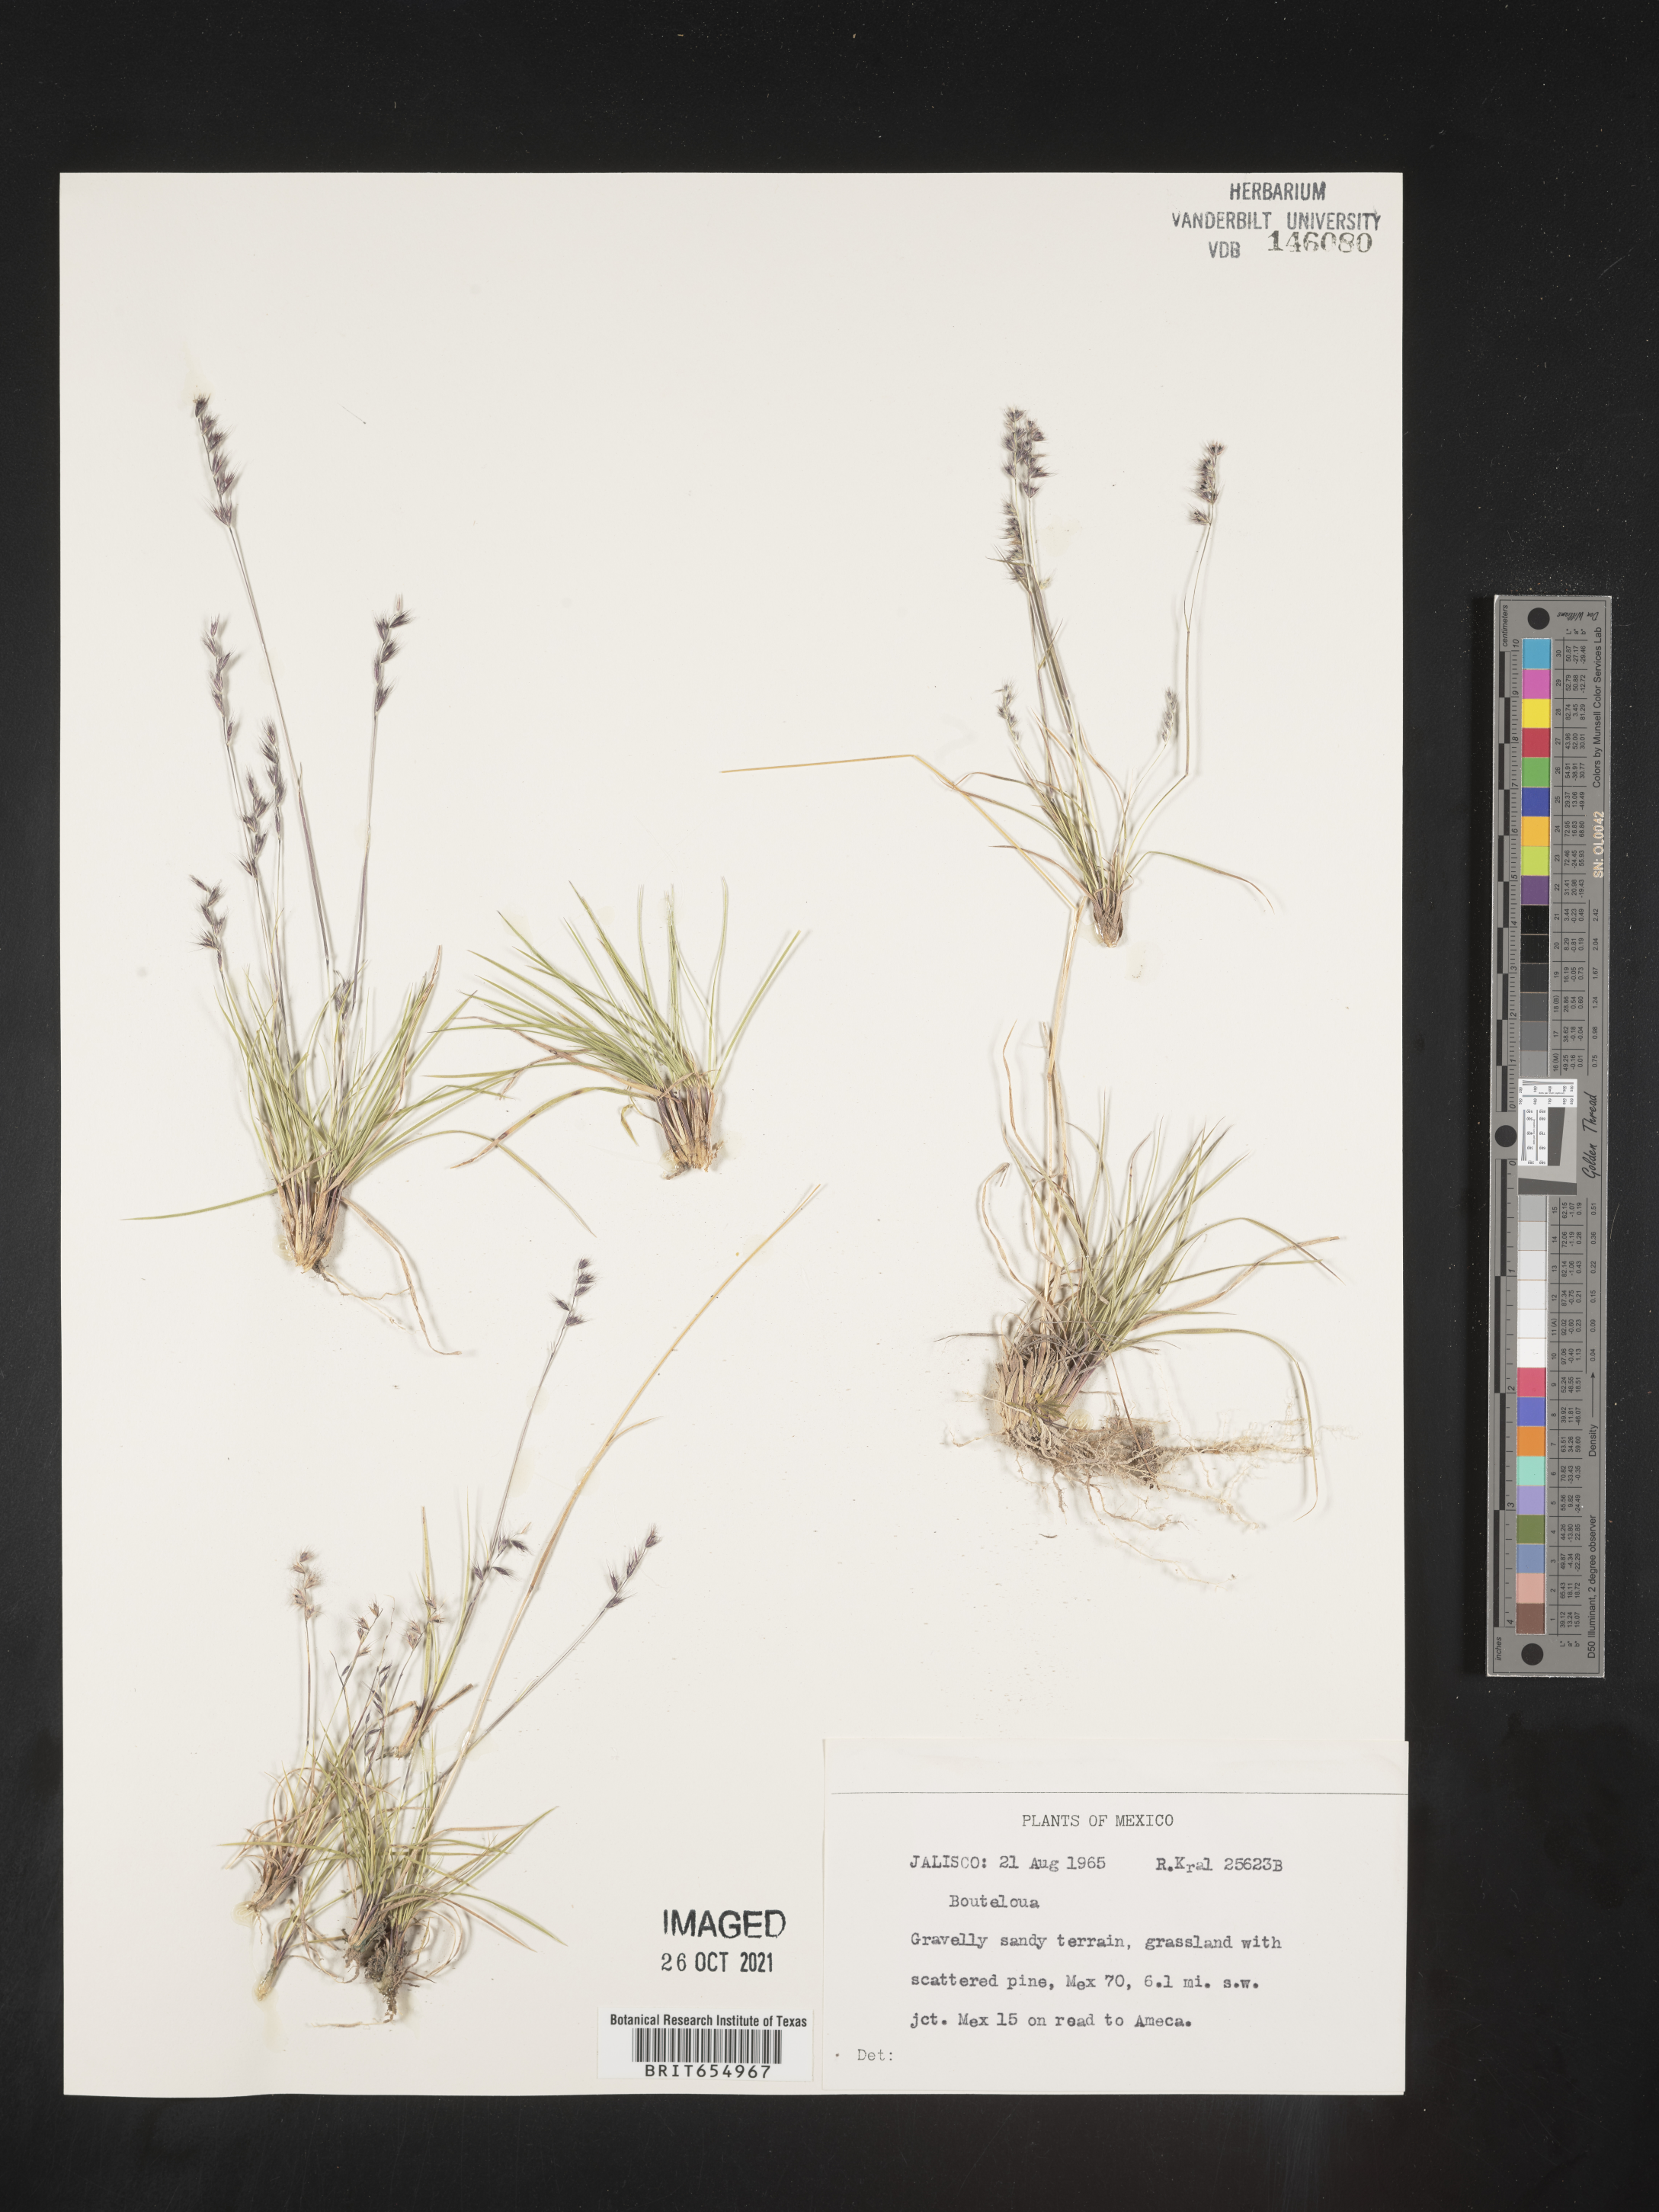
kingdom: Plantae
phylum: Tracheophyta
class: Liliopsida
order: Poales
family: Poaceae
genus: Bouteloua
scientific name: Bouteloua
